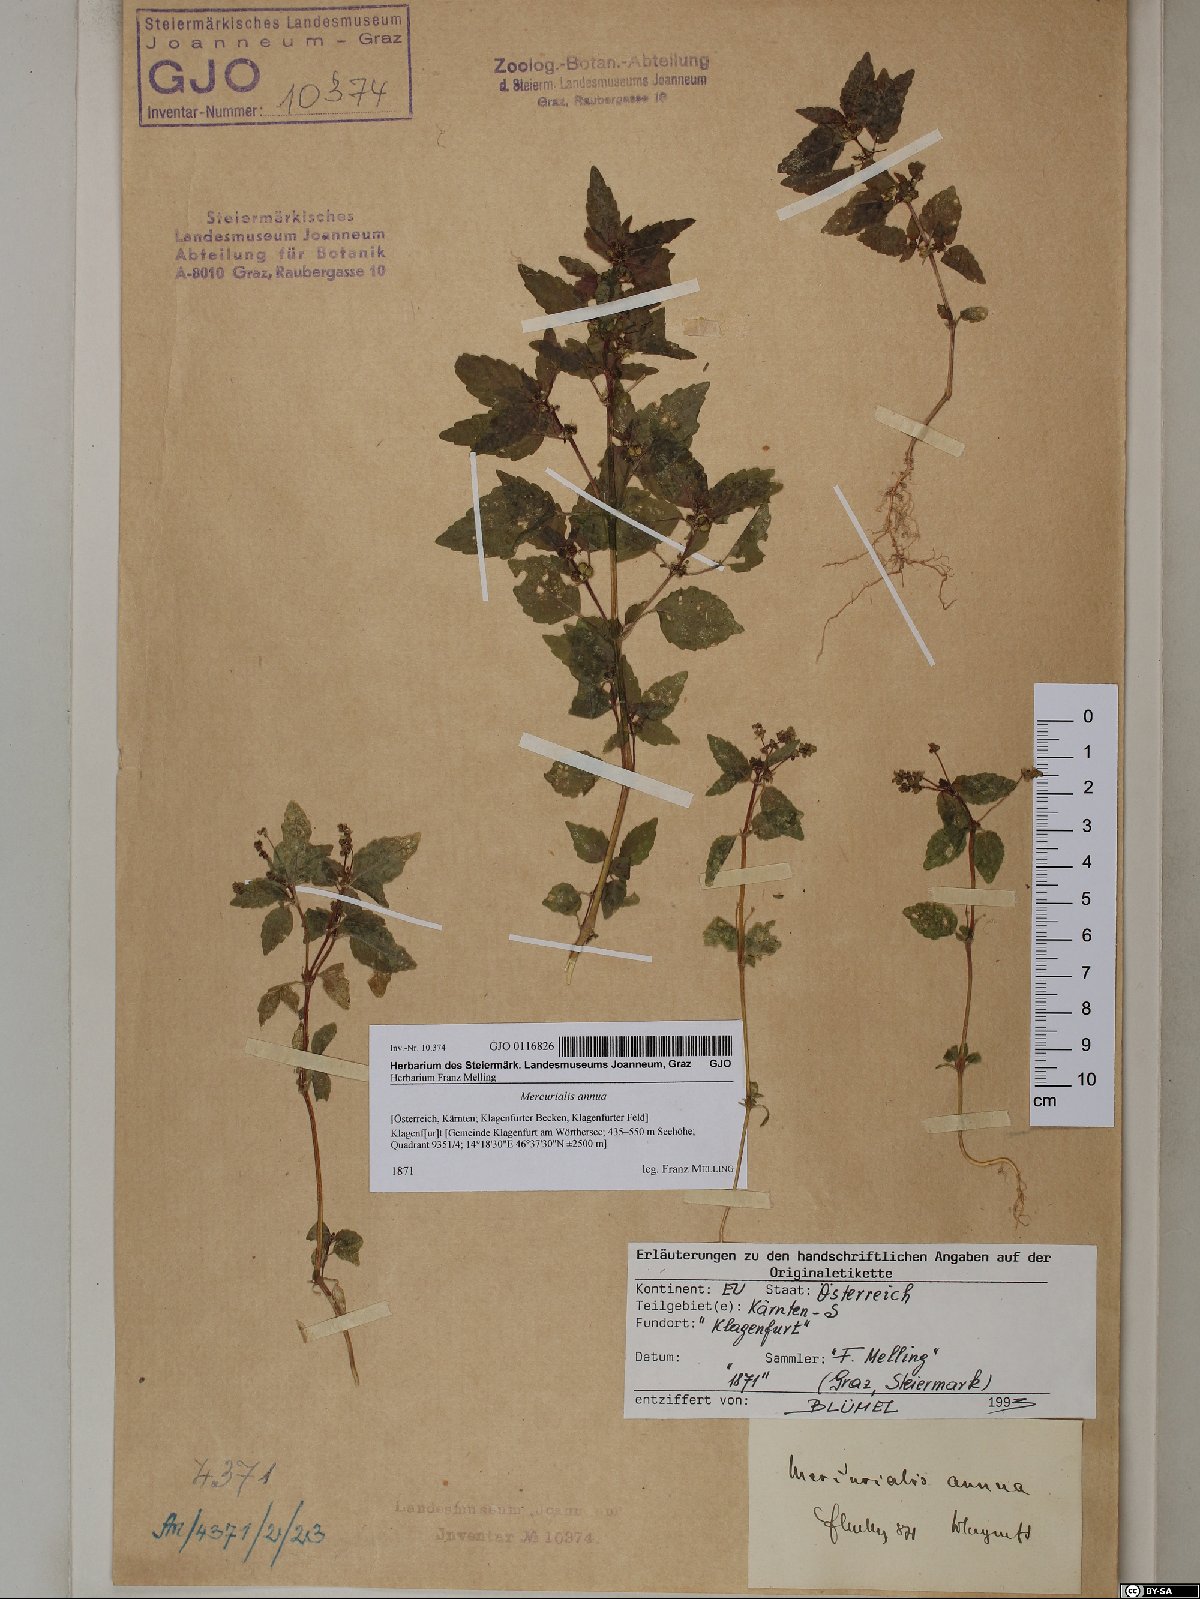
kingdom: Plantae
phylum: Tracheophyta
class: Magnoliopsida
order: Malpighiales
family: Euphorbiaceae
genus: Mercurialis
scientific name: Mercurialis annua
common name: Annual mercury
